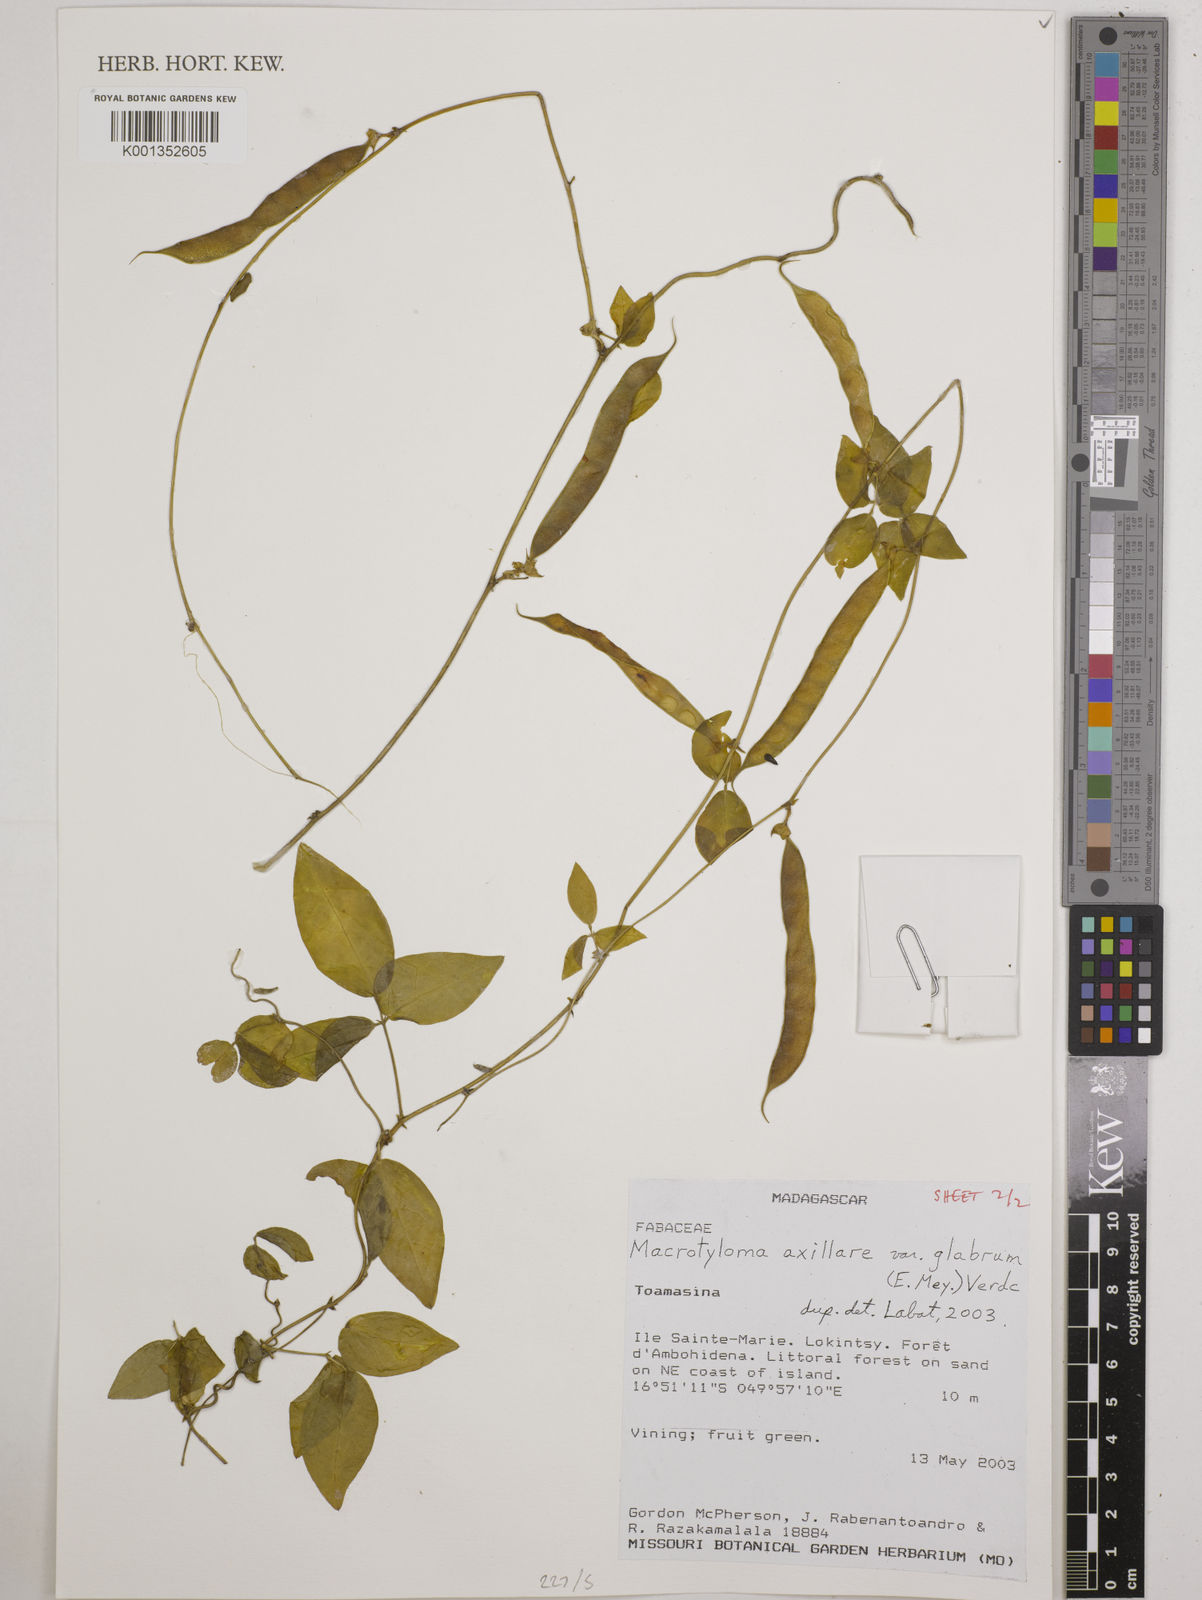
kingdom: Plantae
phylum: Tracheophyta
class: Magnoliopsida
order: Fabales
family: Fabaceae
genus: Macrotyloma
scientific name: Macrotyloma
